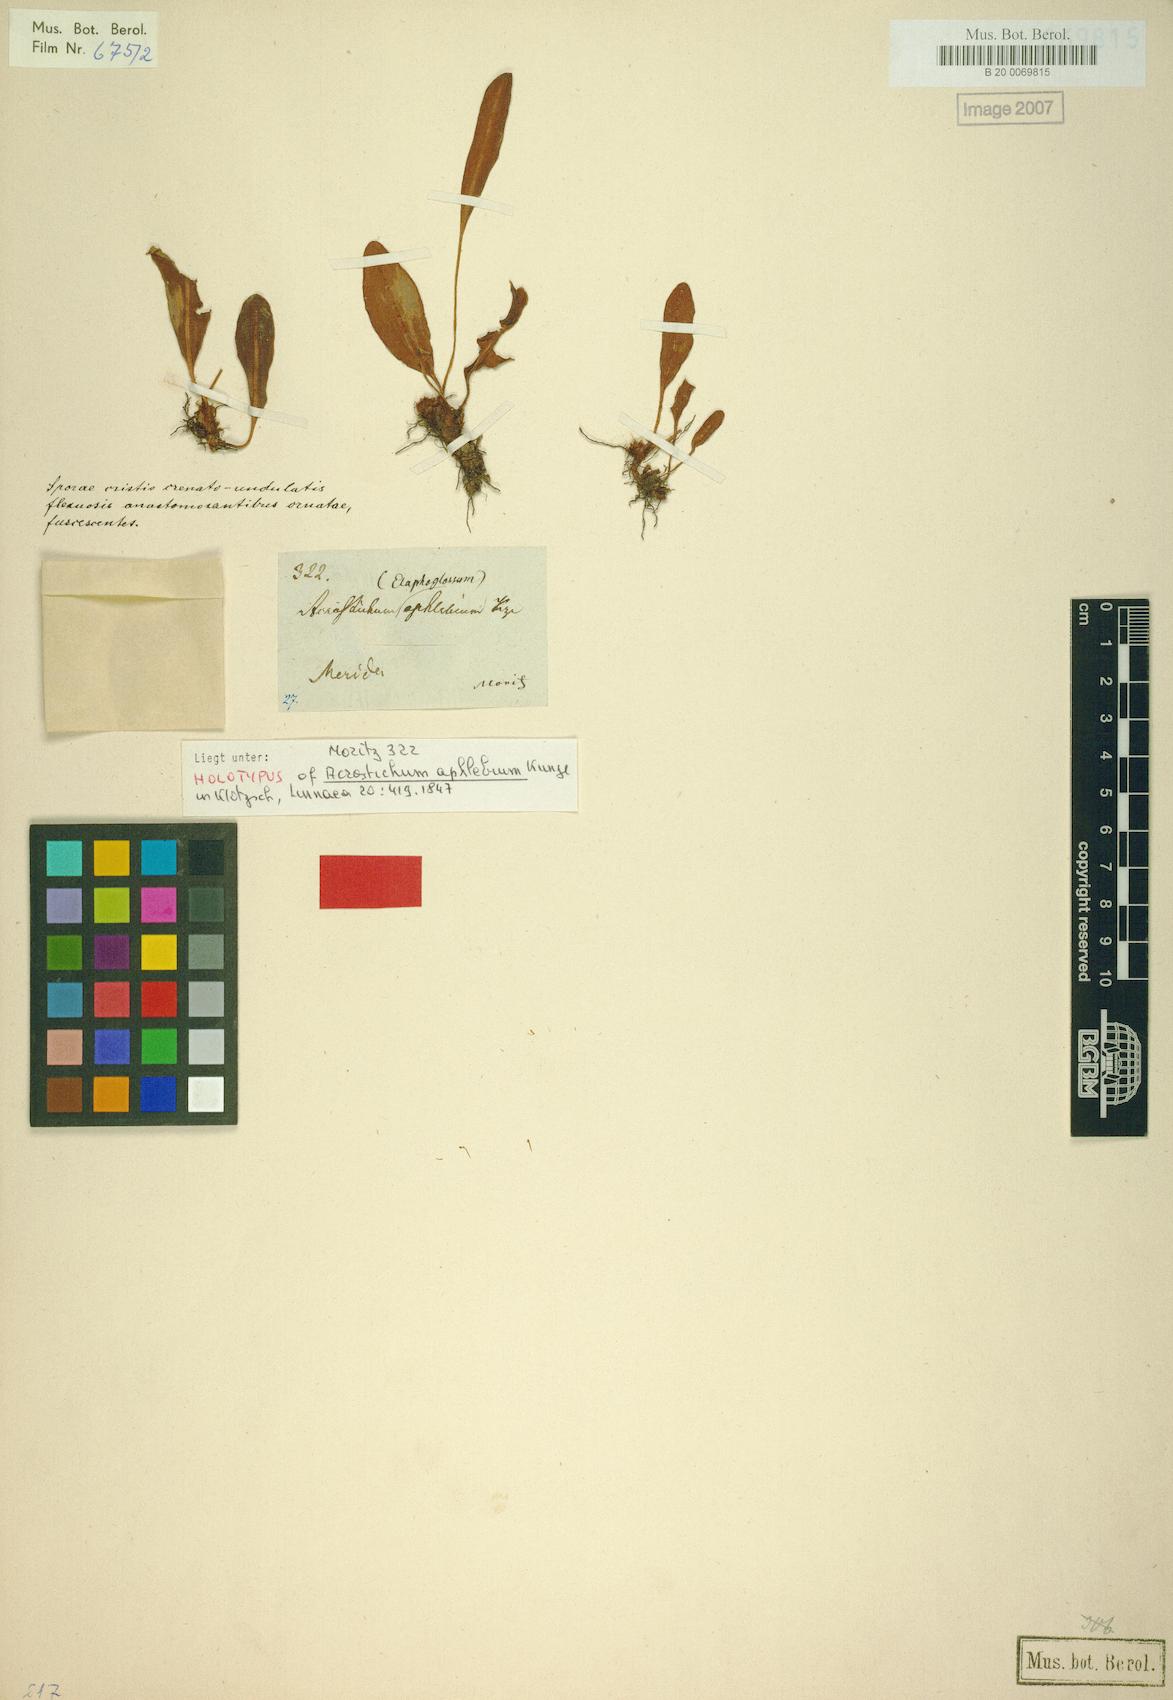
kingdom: Plantae
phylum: Tracheophyta
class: Polypodiopsida
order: Polypodiales
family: Dryopteridaceae
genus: Elaphoglossum
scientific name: Elaphoglossum aphlebium
